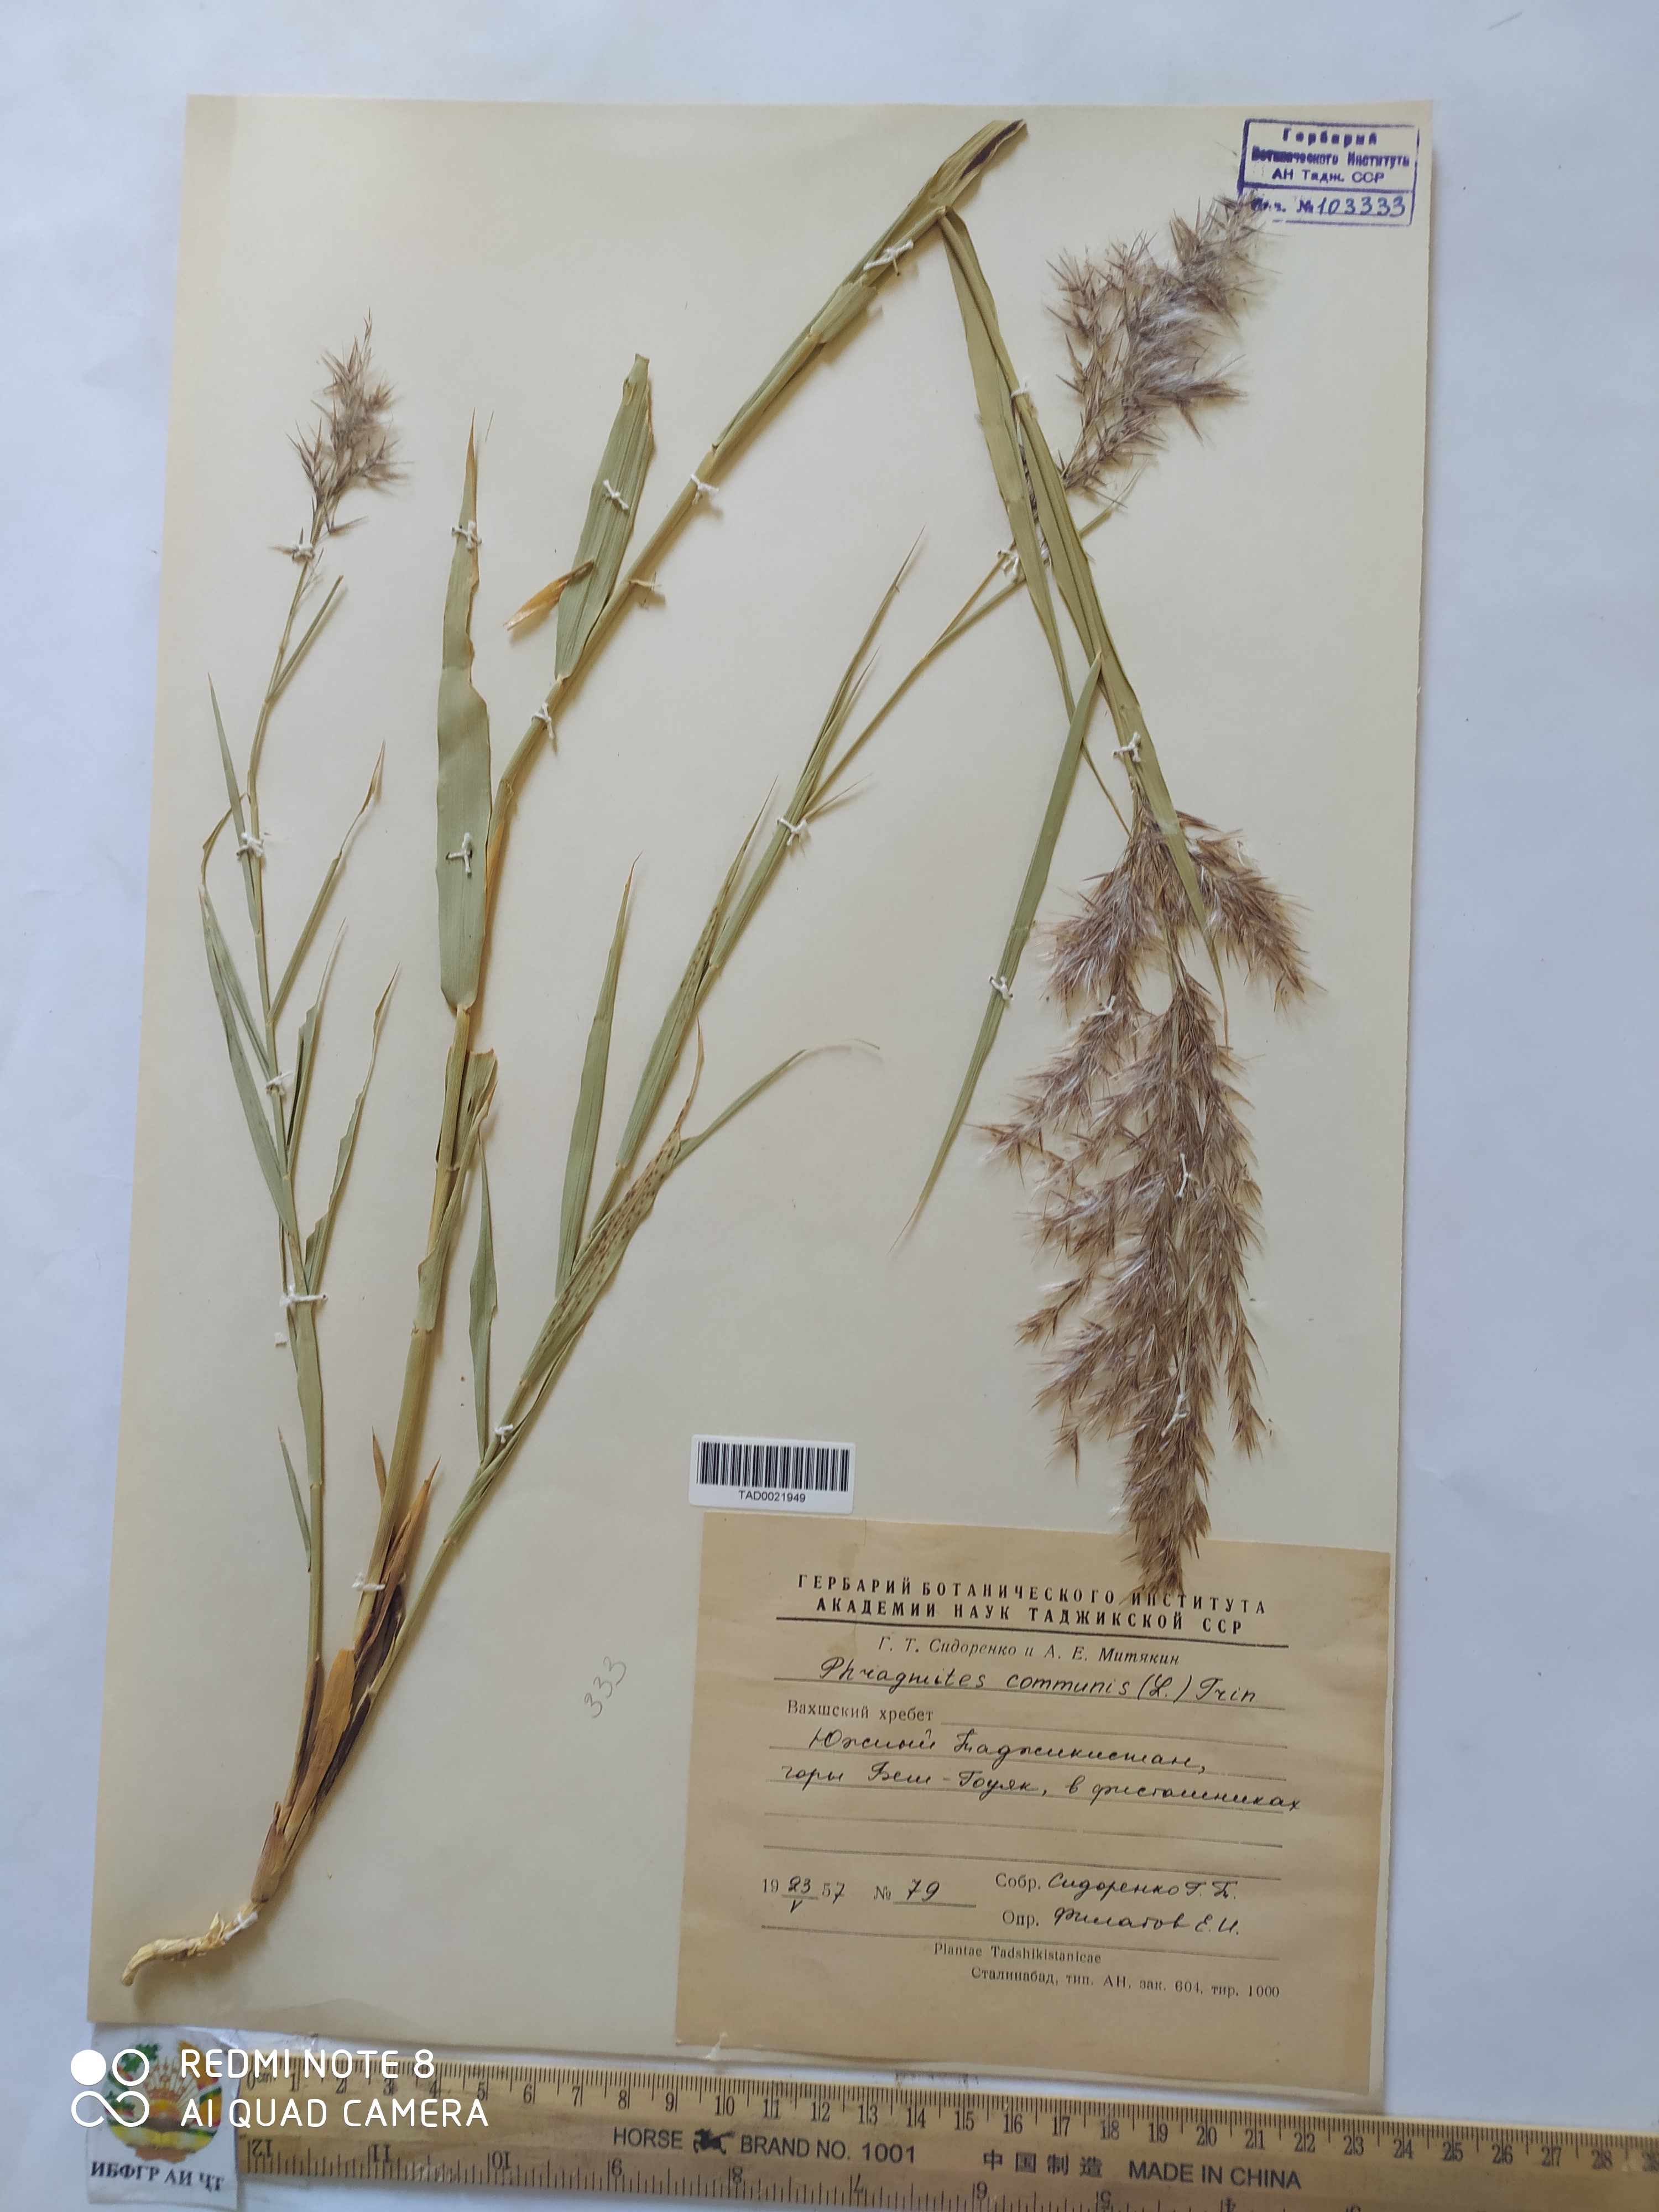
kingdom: Plantae
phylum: Tracheophyta
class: Liliopsida
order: Poales
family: Poaceae
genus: Phragmites
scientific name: Phragmites australis
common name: Common reed
